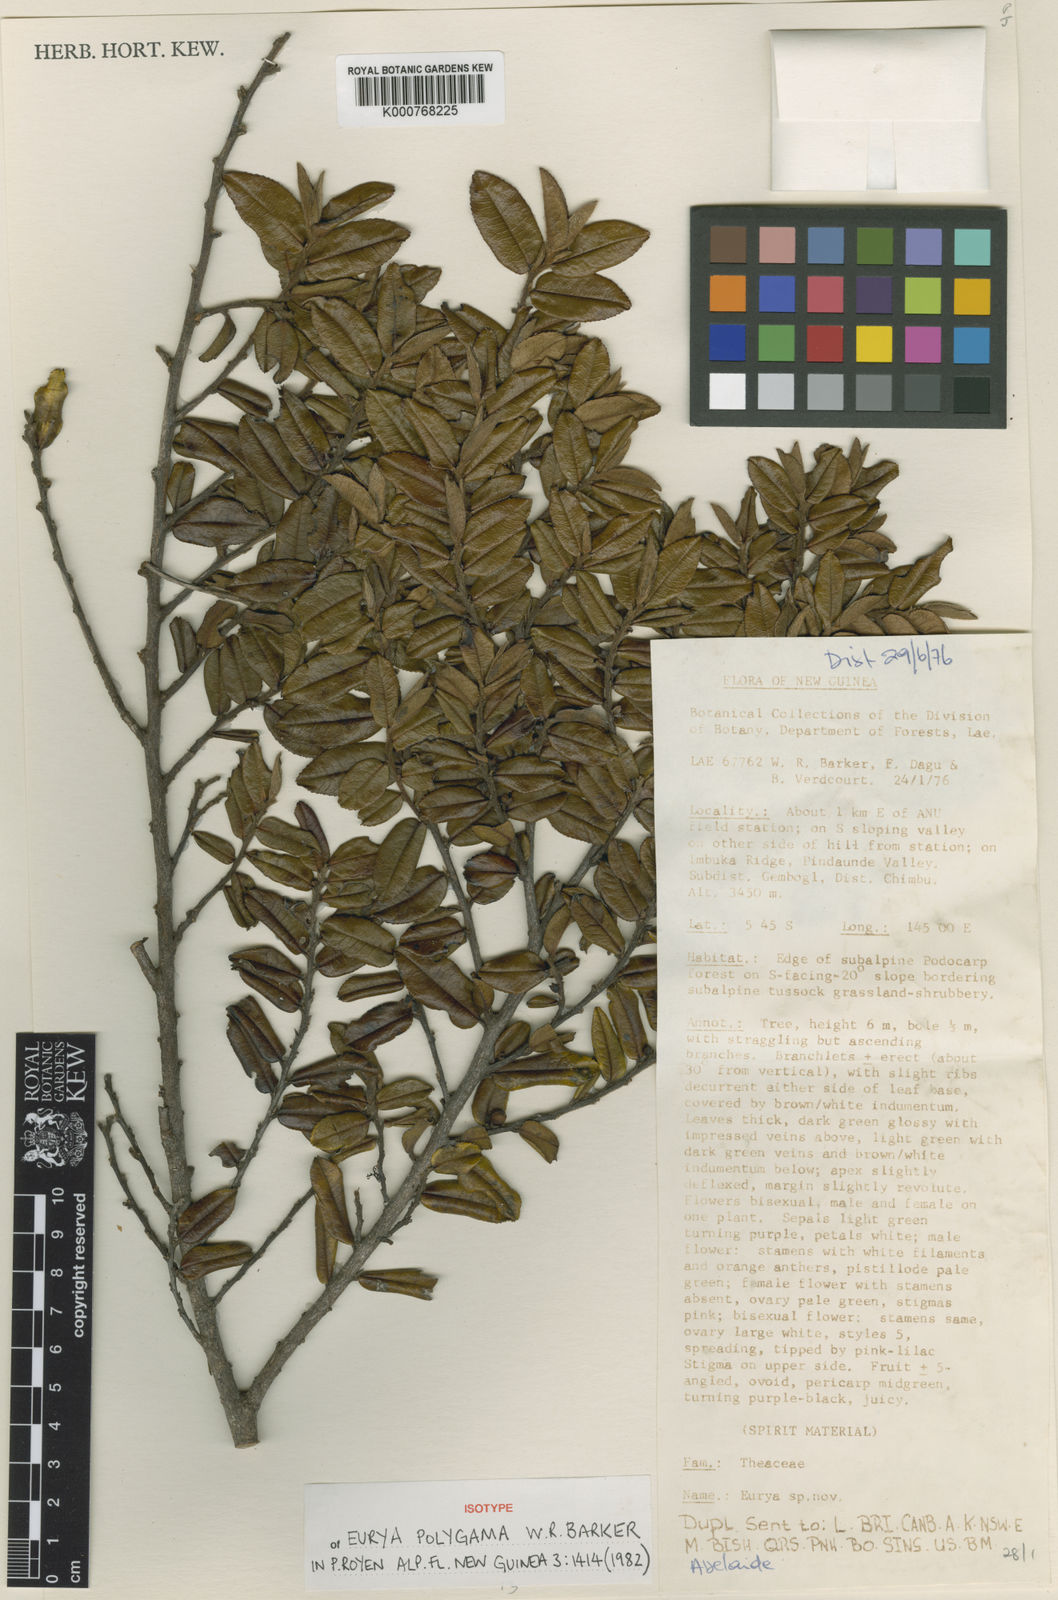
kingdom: Plantae
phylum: Tracheophyta
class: Magnoliopsida
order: Ericales
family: Pentaphylacaceae
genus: Eurya
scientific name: Eurya
